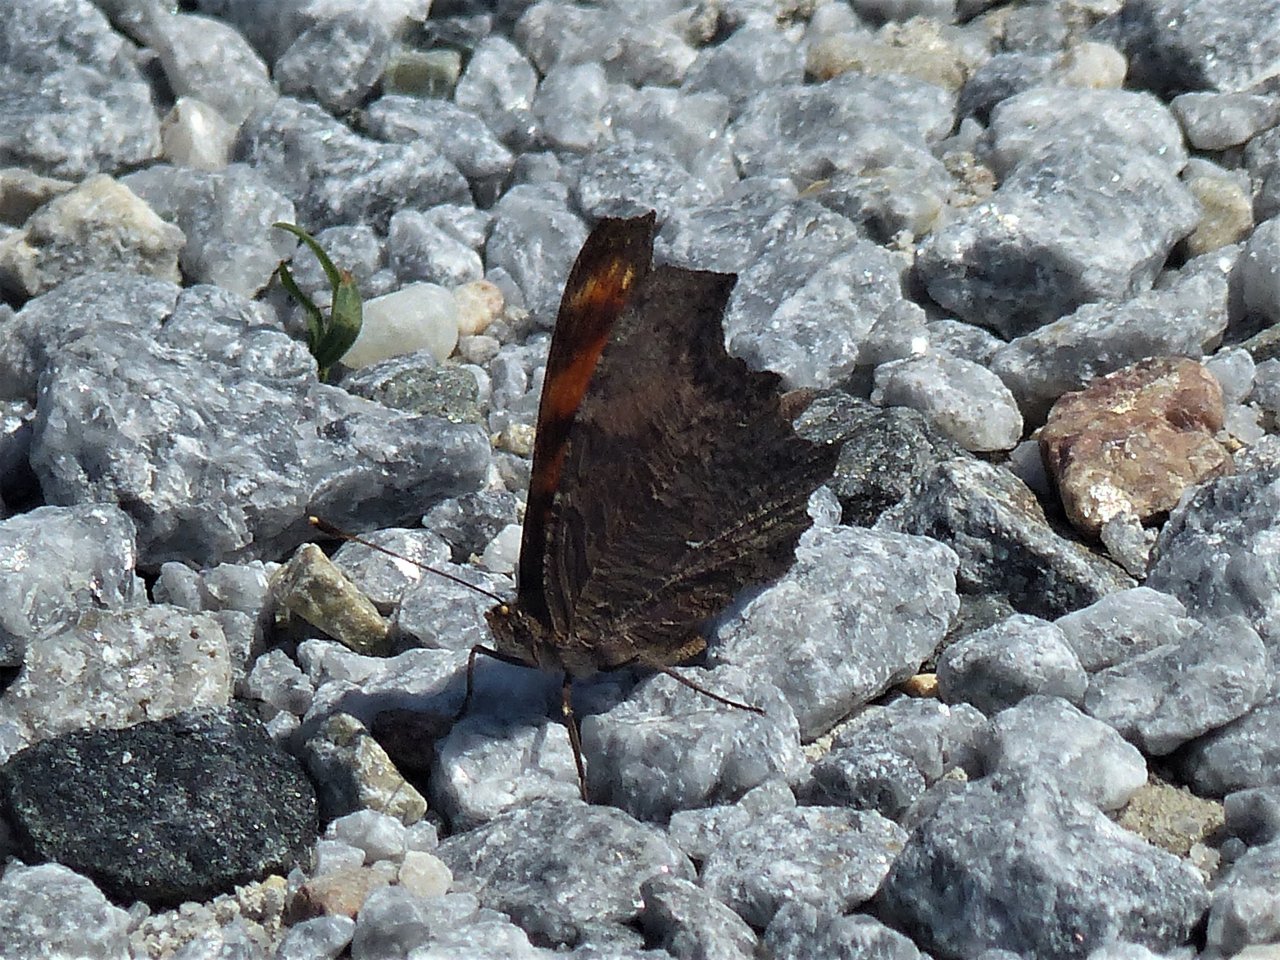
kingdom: Animalia
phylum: Arthropoda
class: Insecta
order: Lepidoptera
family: Nymphalidae
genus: Polygonia
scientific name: Polygonia progne
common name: Gray Comma
